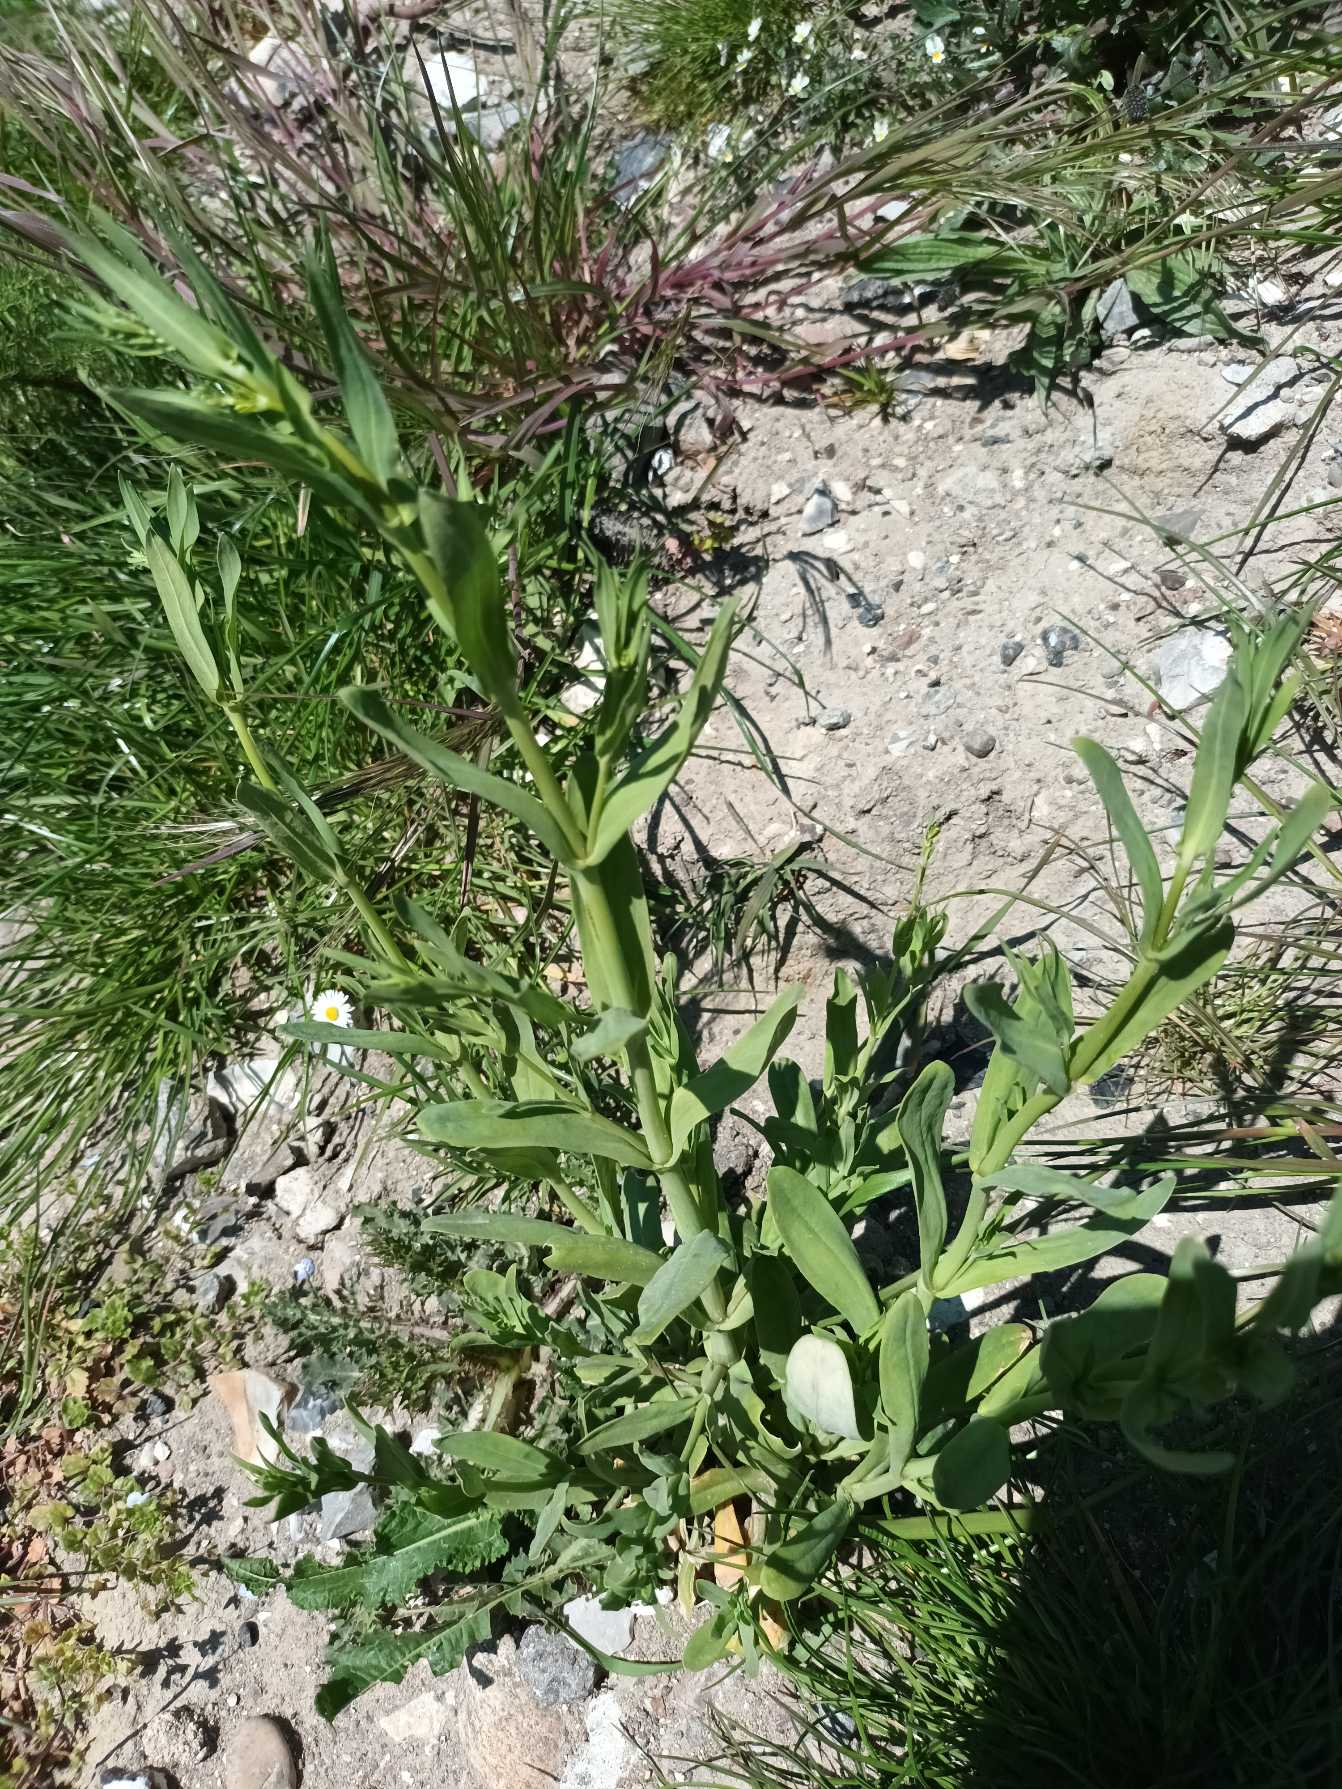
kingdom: Plantae
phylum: Tracheophyta
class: Magnoliopsida
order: Caryophyllales
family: Caryophyllaceae
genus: Silene
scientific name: Silene vulgaris
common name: Blæresmælde
